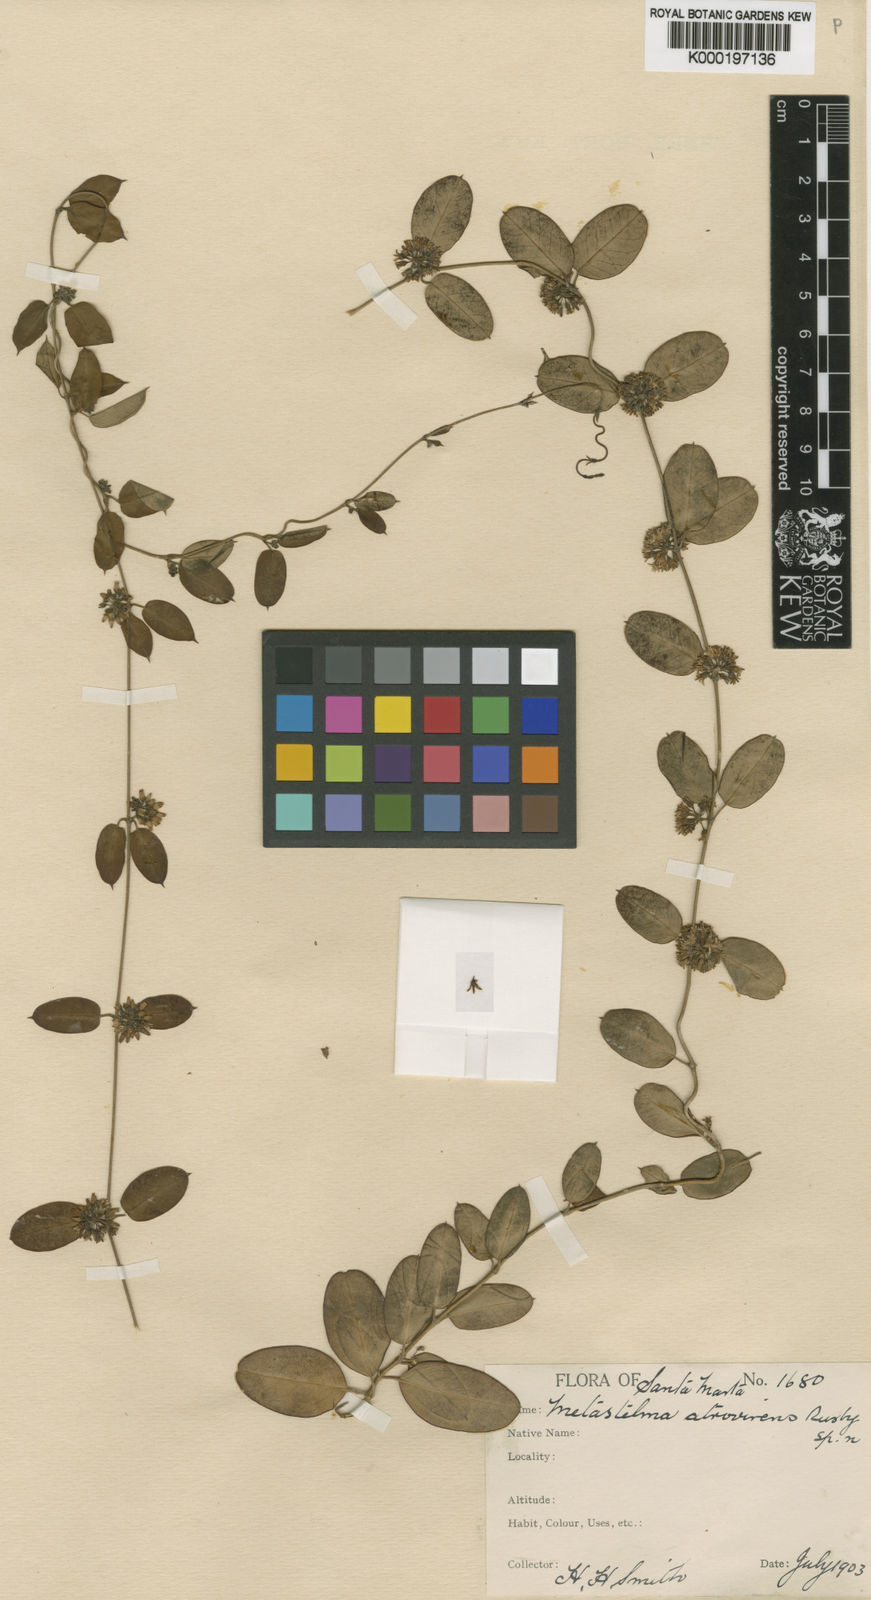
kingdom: Plantae
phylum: Tracheophyta
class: Magnoliopsida
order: Gentianales
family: Apocynaceae
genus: Metastelma
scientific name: Metastelma atrovirens
